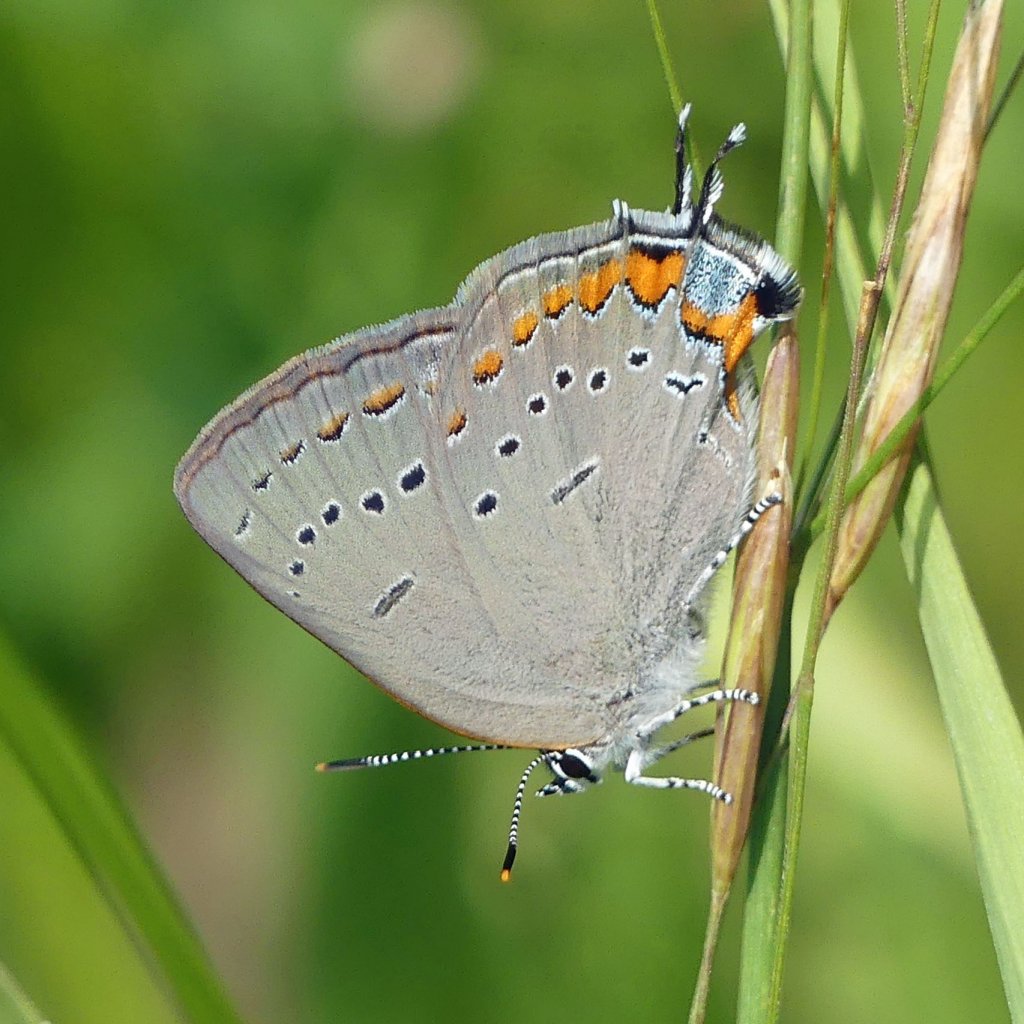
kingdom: Animalia
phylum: Arthropoda
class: Insecta
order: Lepidoptera
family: Lycaenidae
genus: Strymon
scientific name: Strymon acadica
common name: Acadian Hairstreak
